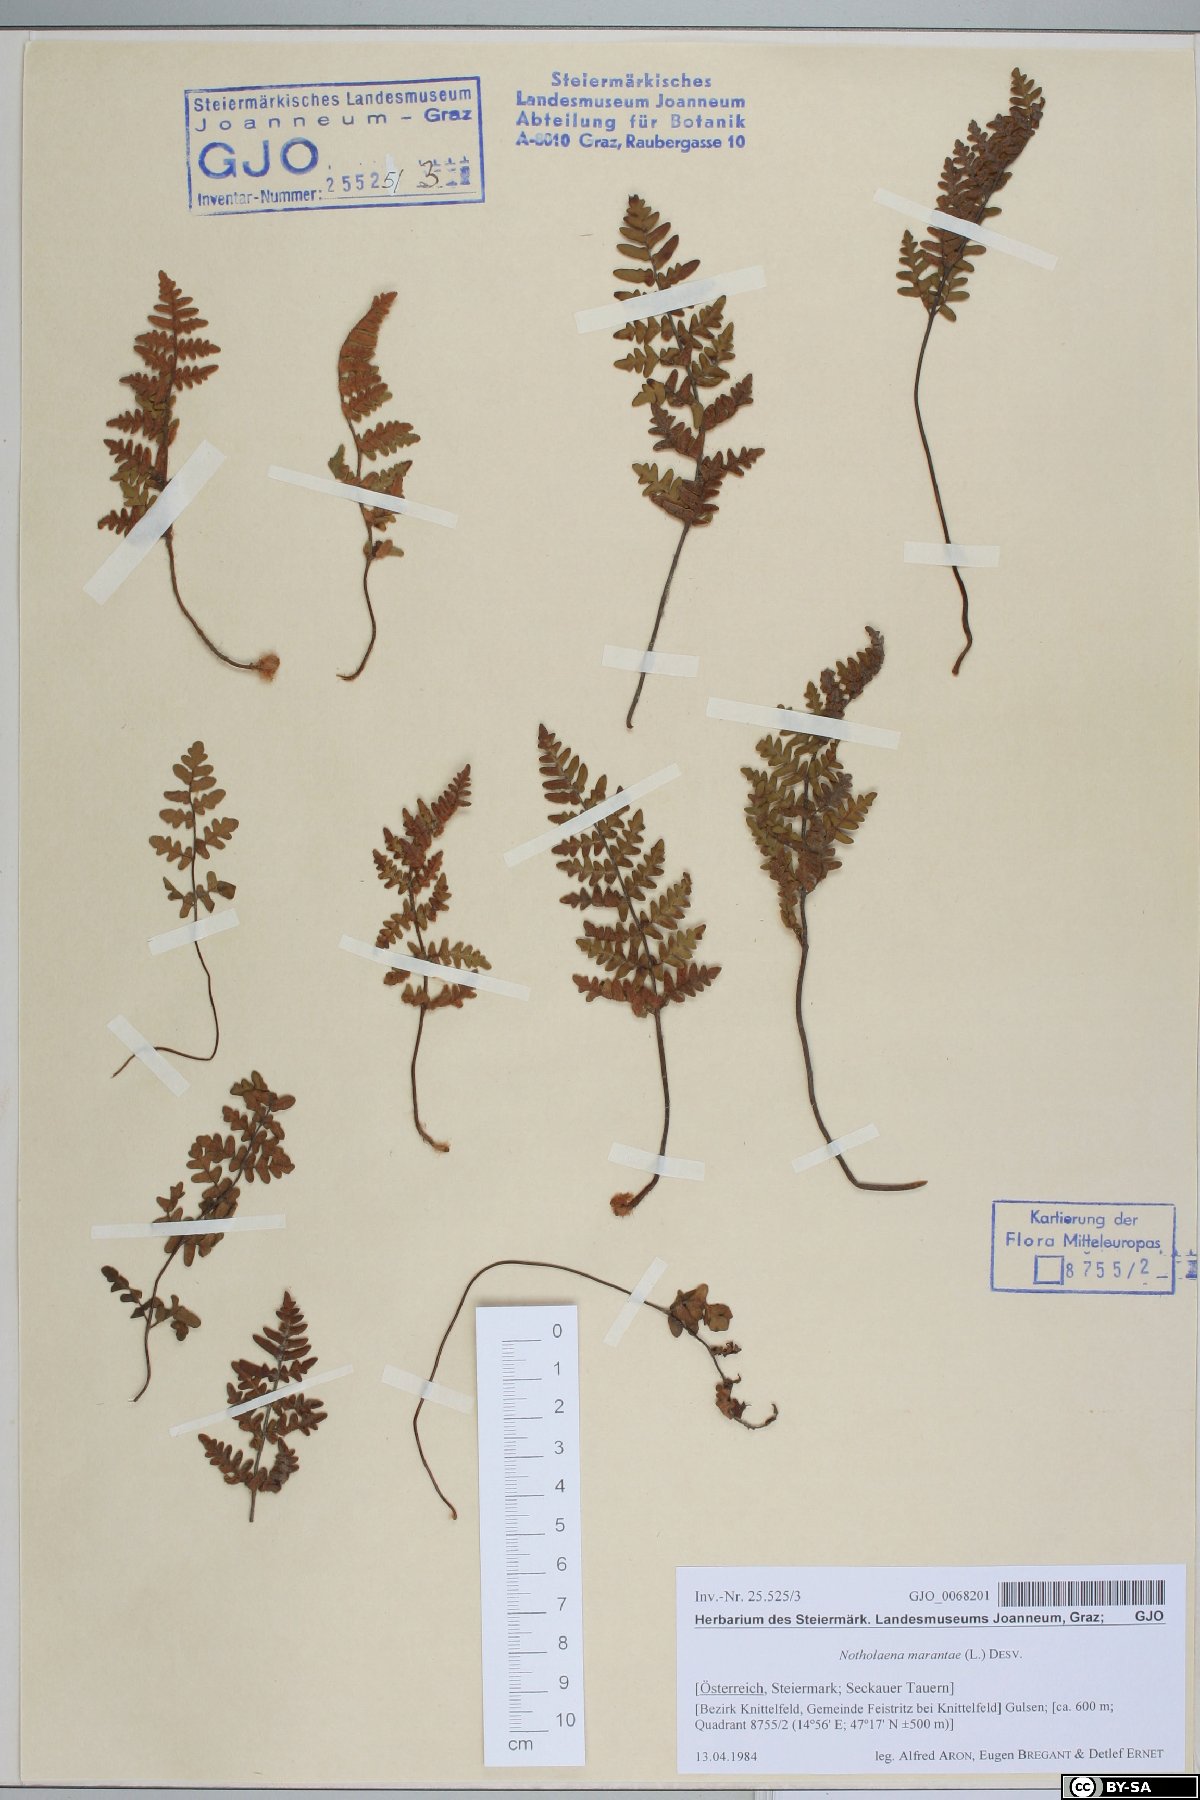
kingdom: Plantae
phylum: Tracheophyta
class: Polypodiopsida
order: Polypodiales
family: Pteridaceae
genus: Paragymnopteris
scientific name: Paragymnopteris marantae
